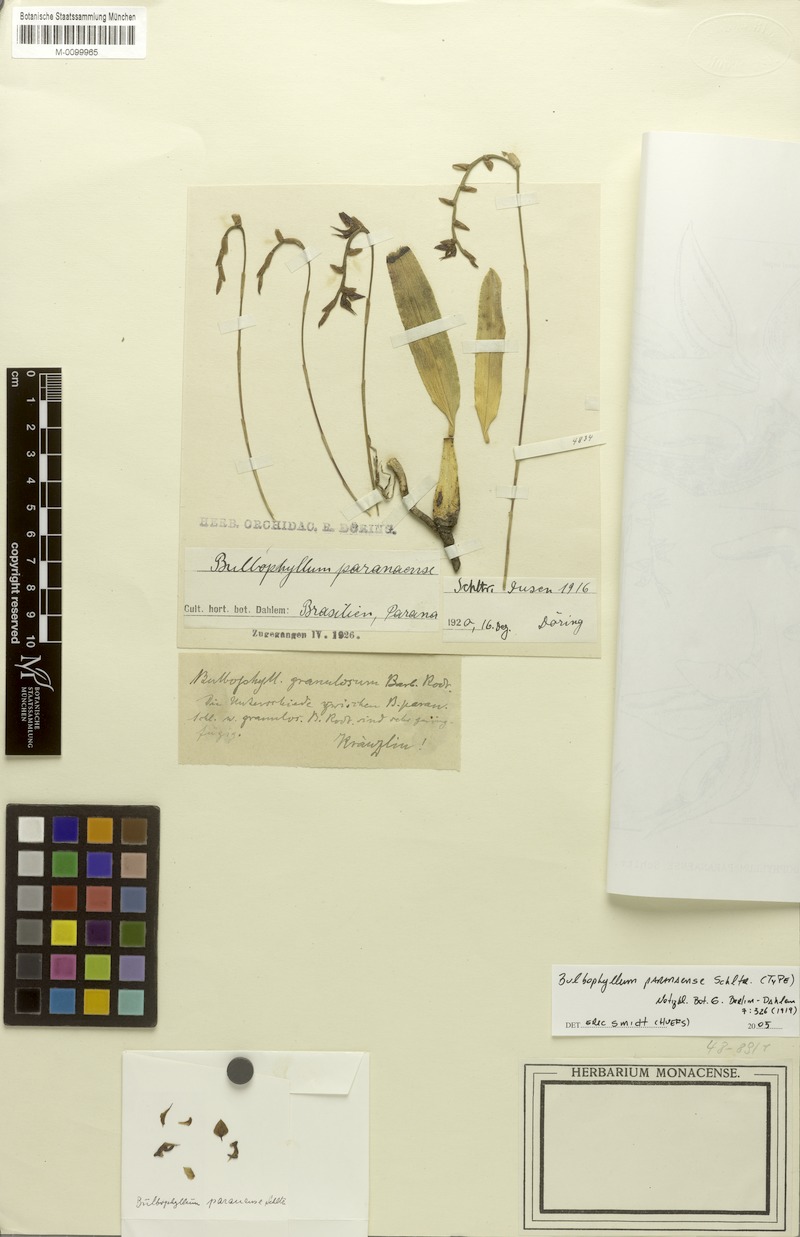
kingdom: Plantae
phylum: Tracheophyta
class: Liliopsida
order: Asparagales
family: Orchidaceae
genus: Bulbophyllum
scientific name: Bulbophyllum paranaense
